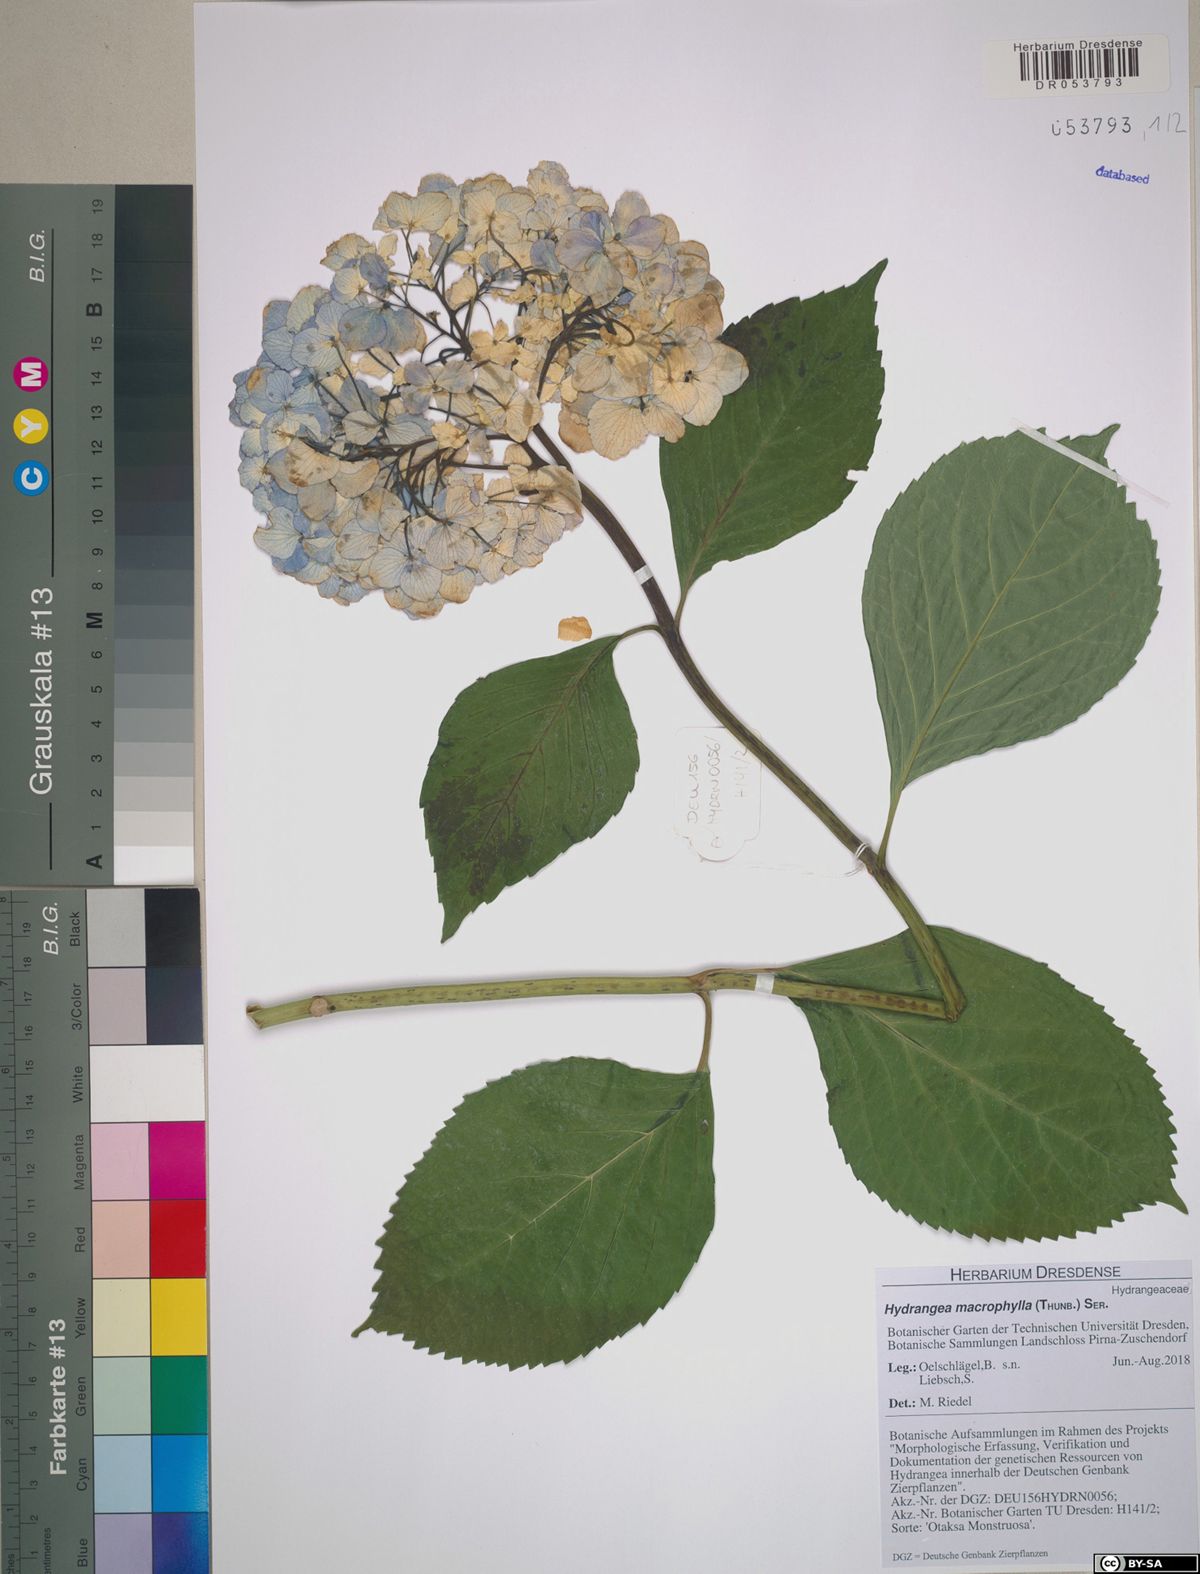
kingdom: Plantae
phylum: Tracheophyta
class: Magnoliopsida
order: Cornales
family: Hydrangeaceae
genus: Hydrangea
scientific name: Hydrangea macrophylla
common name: Hydrangea
